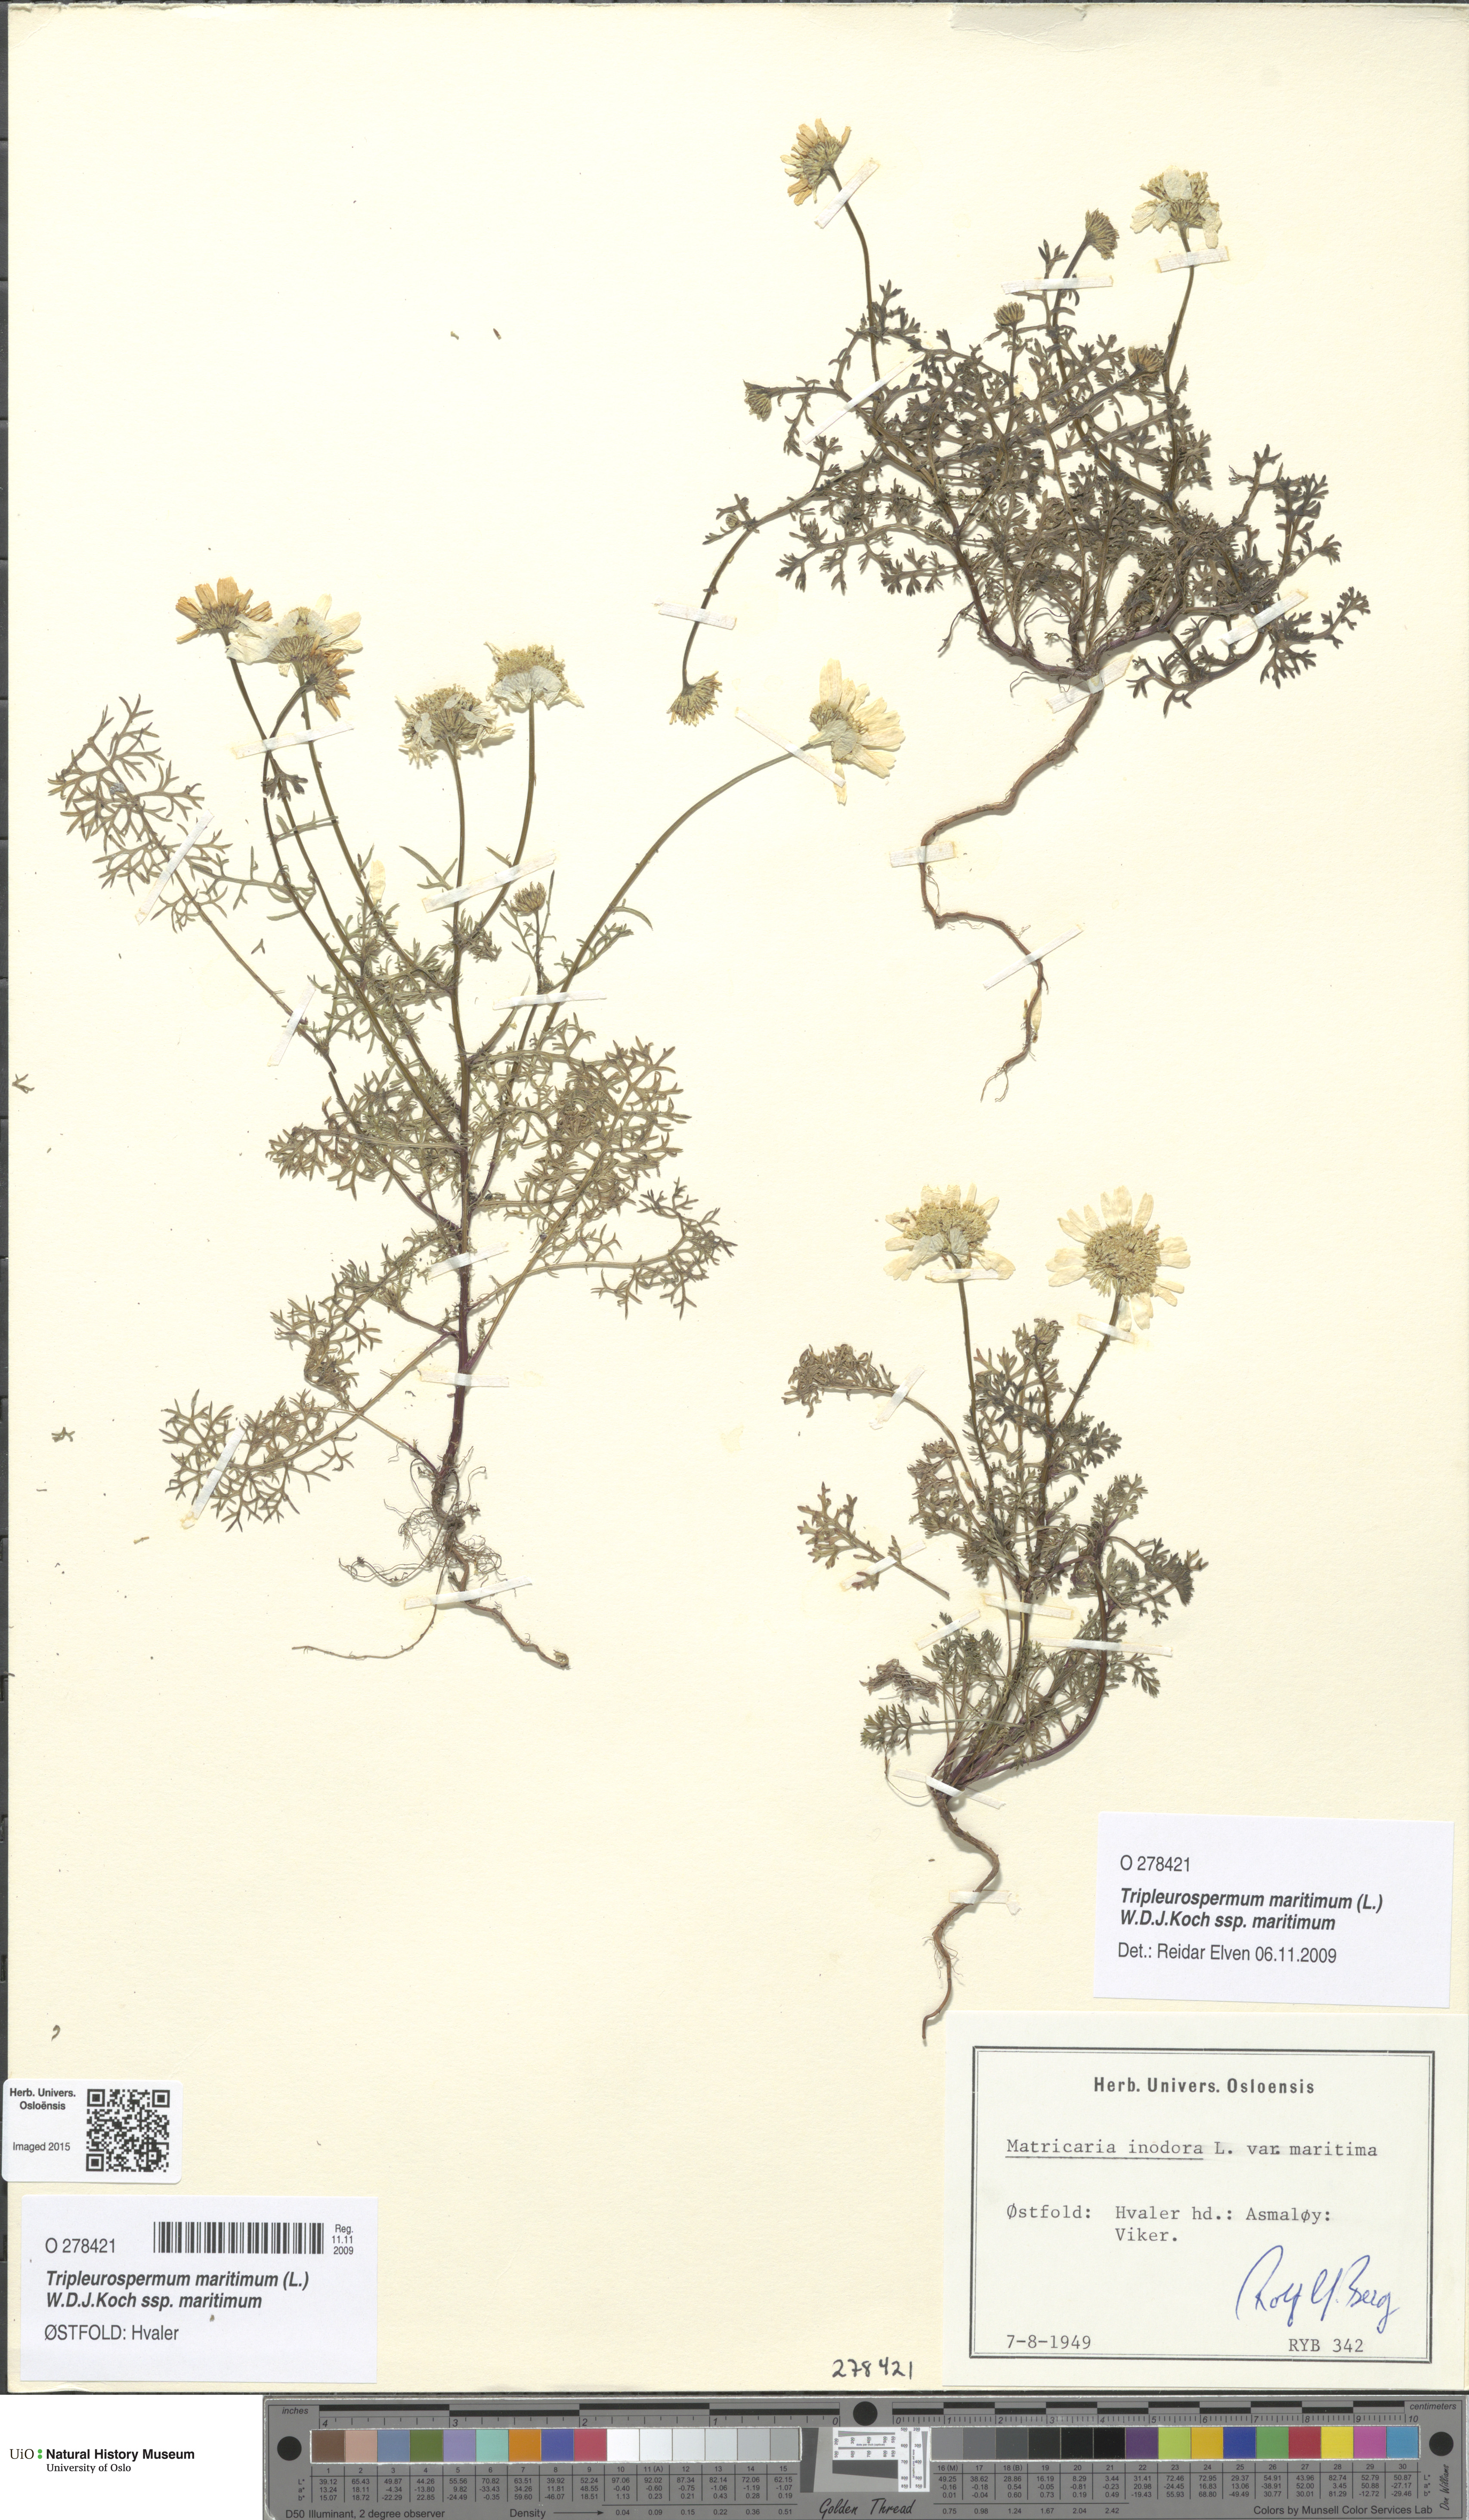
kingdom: Plantae
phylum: Tracheophyta
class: Magnoliopsida
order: Asterales
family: Asteraceae
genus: Tripleurospermum
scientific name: Tripleurospermum maritimum
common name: Sea mayweed
